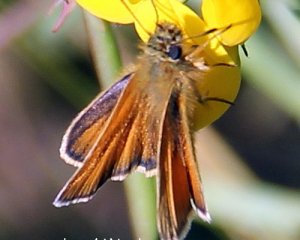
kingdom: Animalia
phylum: Arthropoda
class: Insecta
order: Lepidoptera
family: Hesperiidae
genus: Thymelicus
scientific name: Thymelicus lineola
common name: European Skipper
